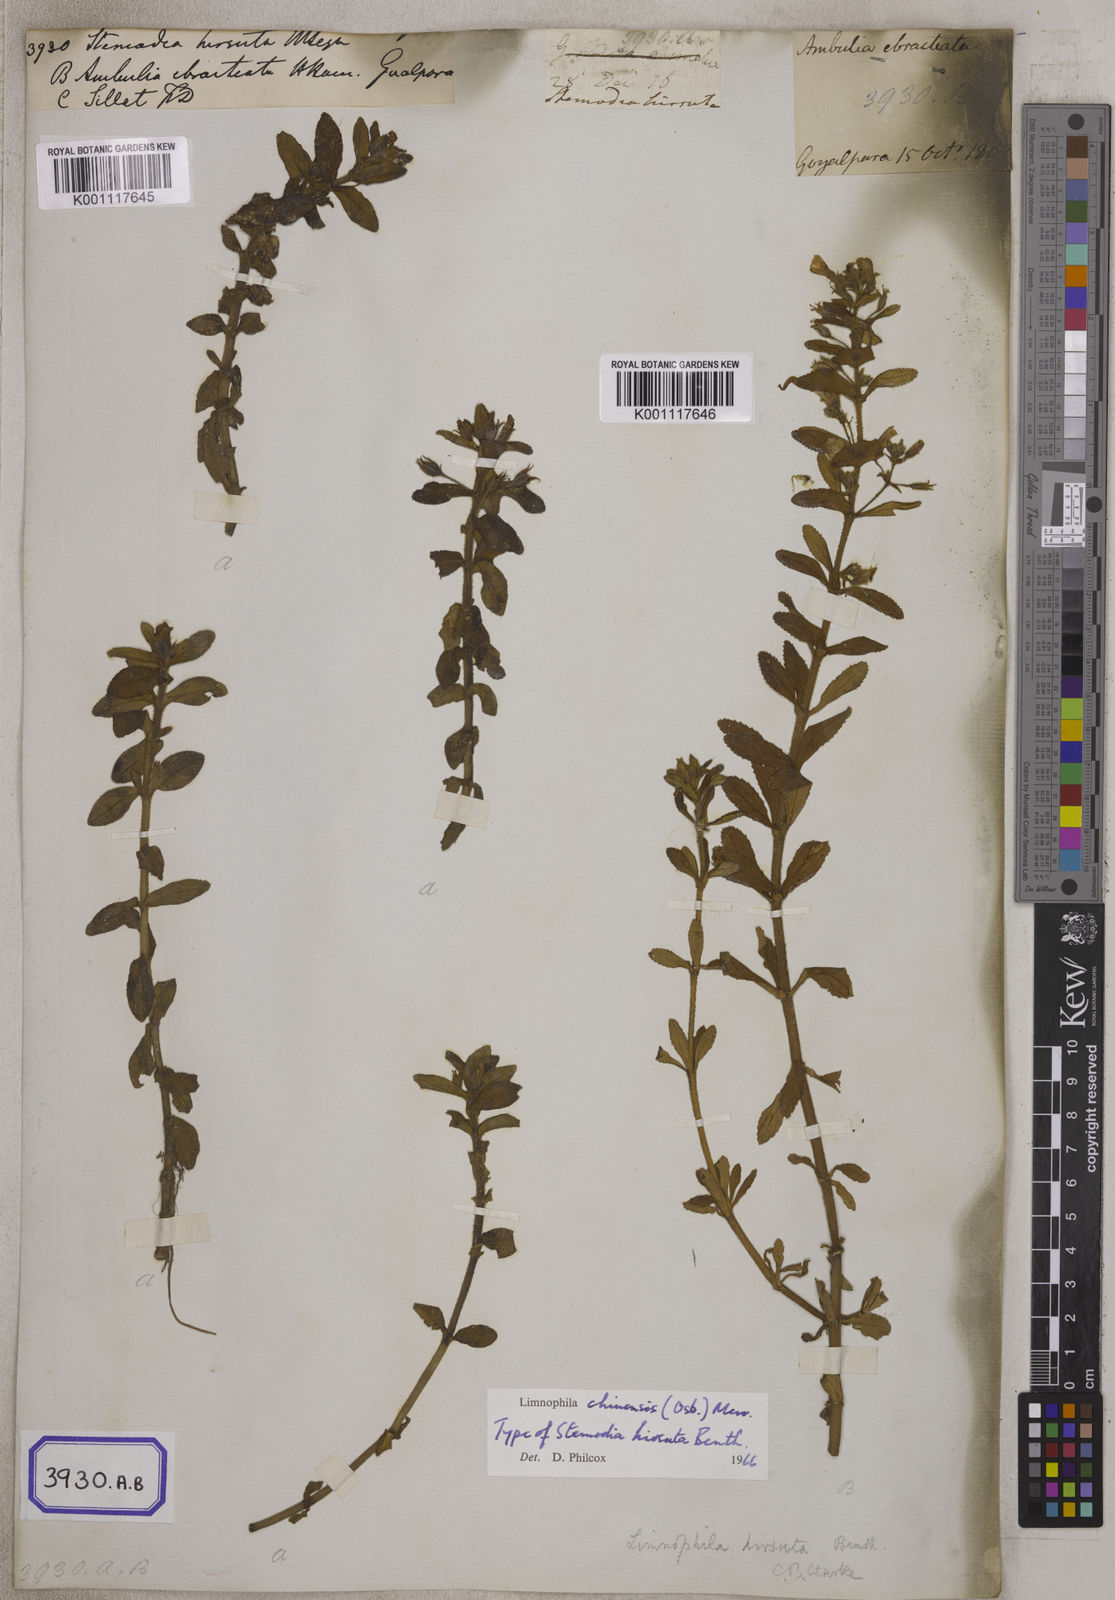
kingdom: Plantae
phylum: Tracheophyta
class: Magnoliopsida
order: Lamiales
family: Plantaginaceae
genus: Stemodia
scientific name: Stemodia
